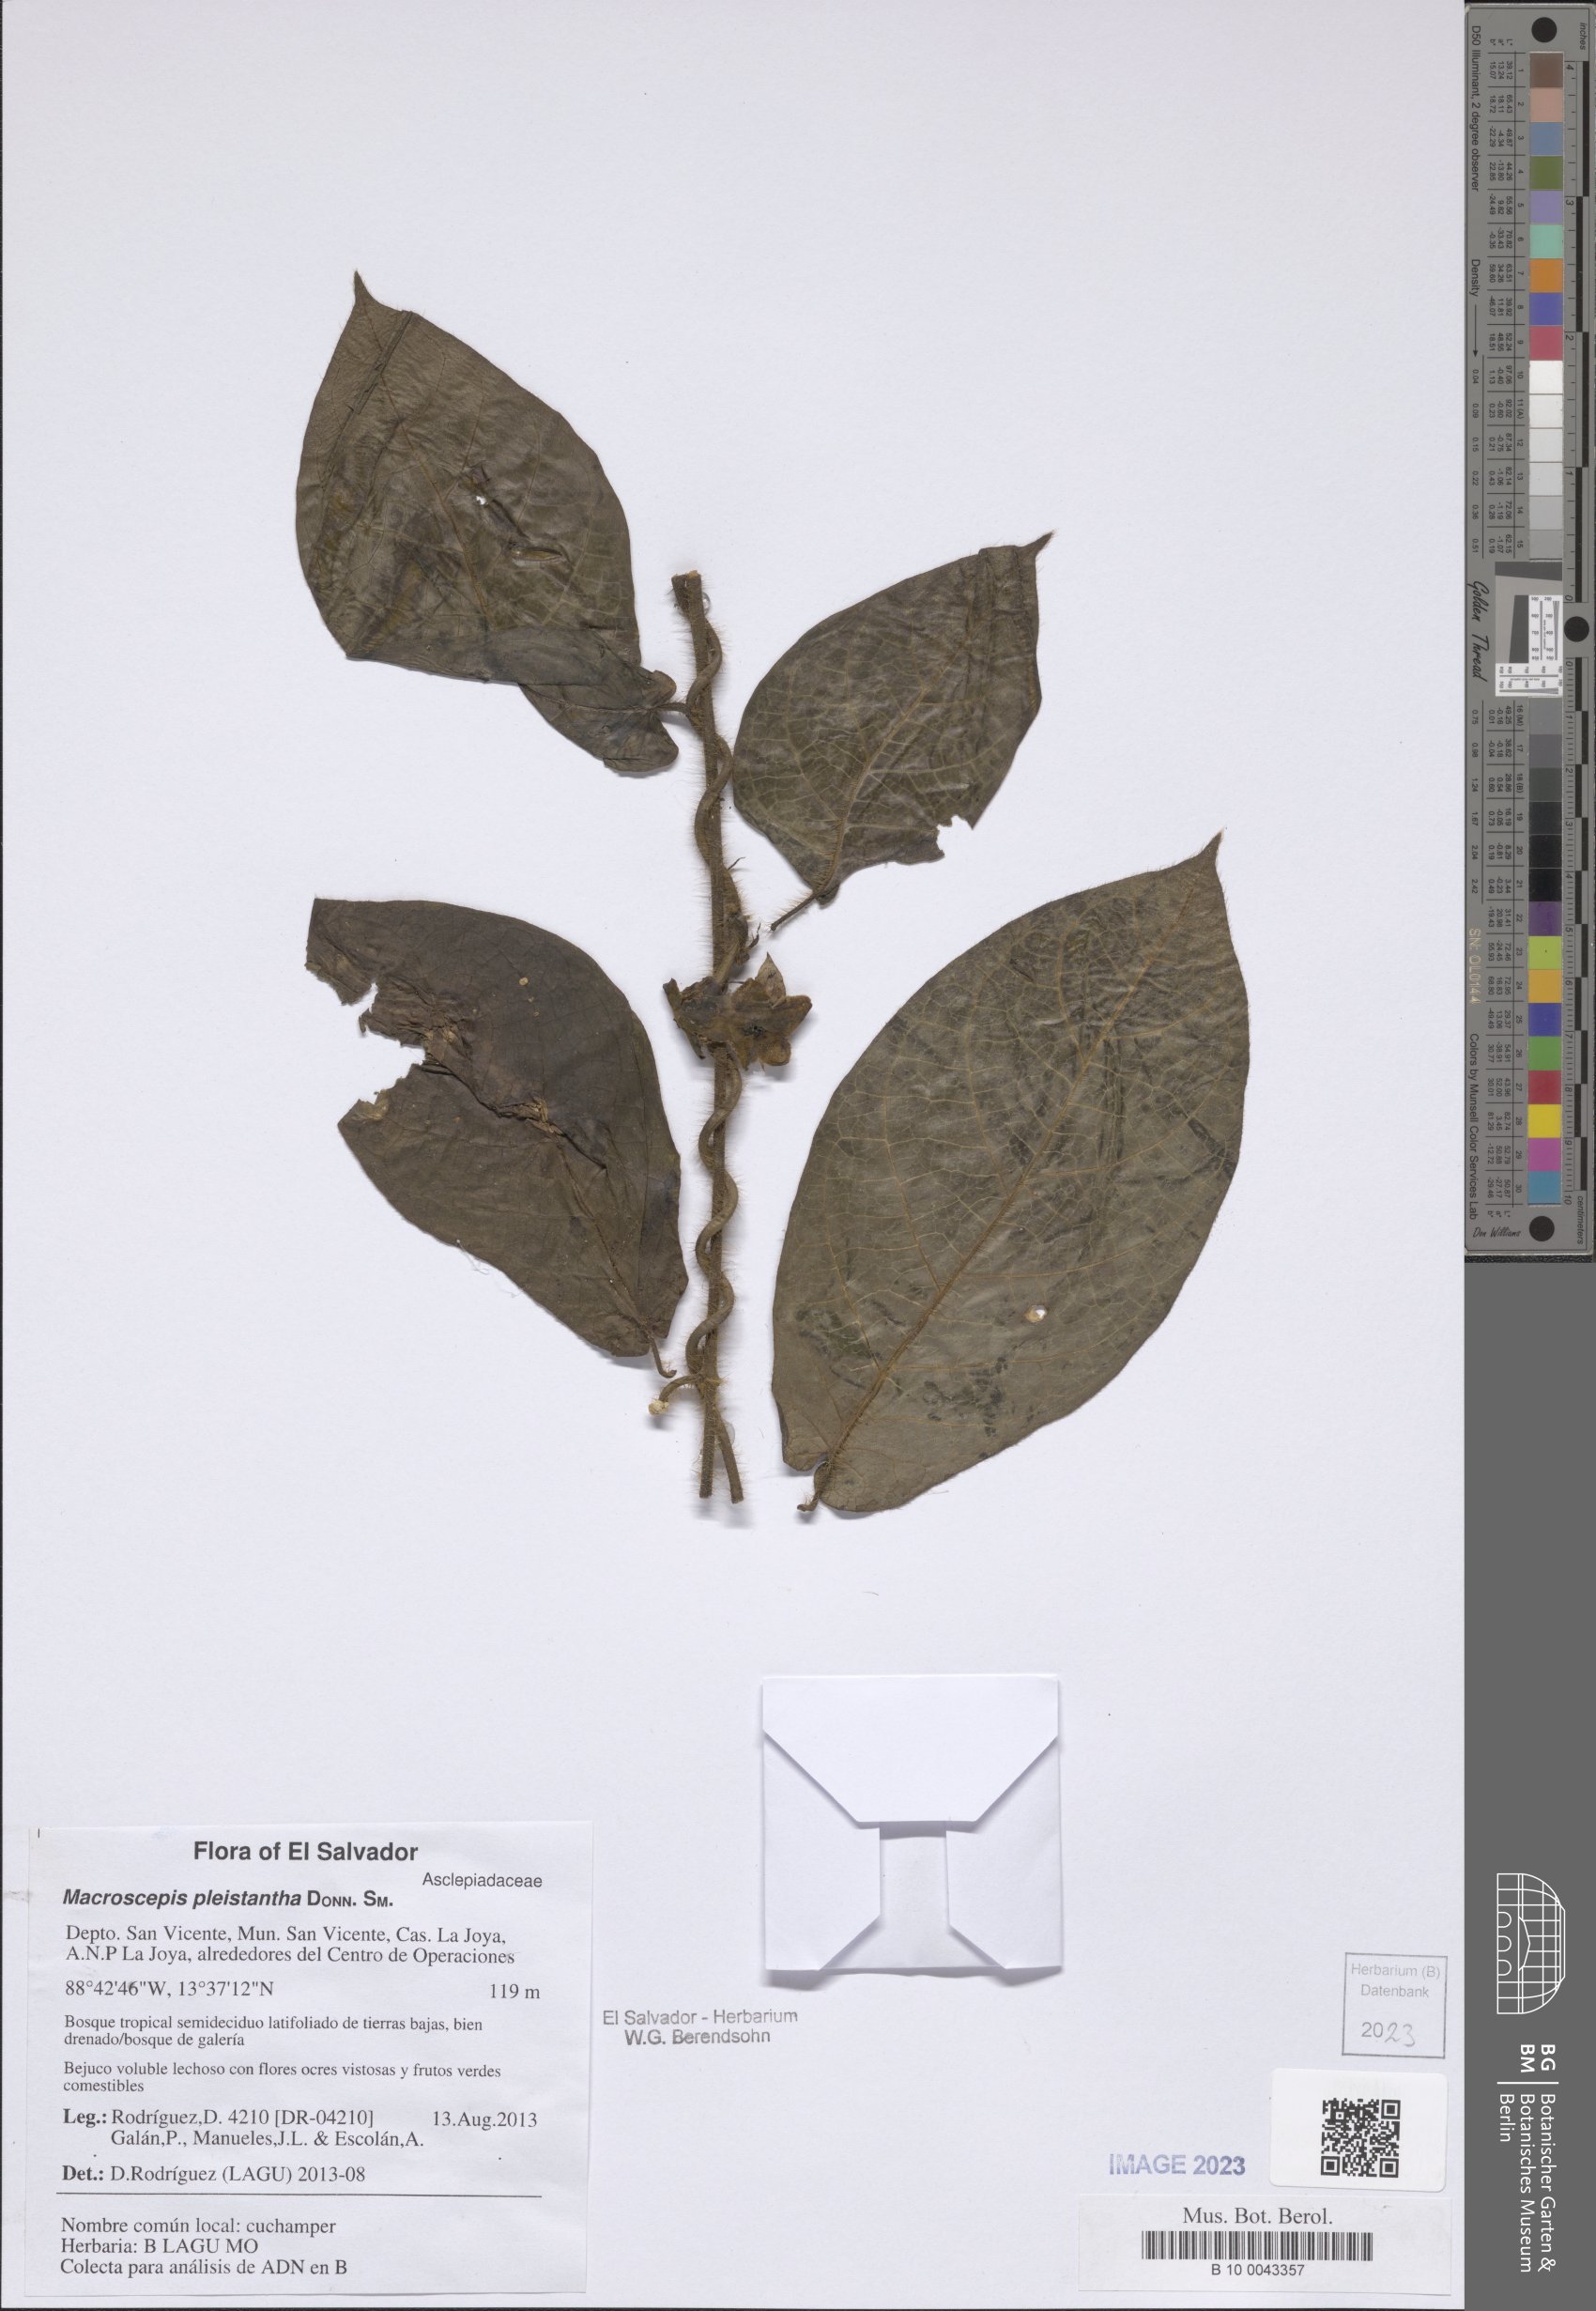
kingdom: Plantae
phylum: Tracheophyta
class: Magnoliopsida
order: Gentianales
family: Apocynaceae
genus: Macroscepis
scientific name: Macroscepis pleistantha
